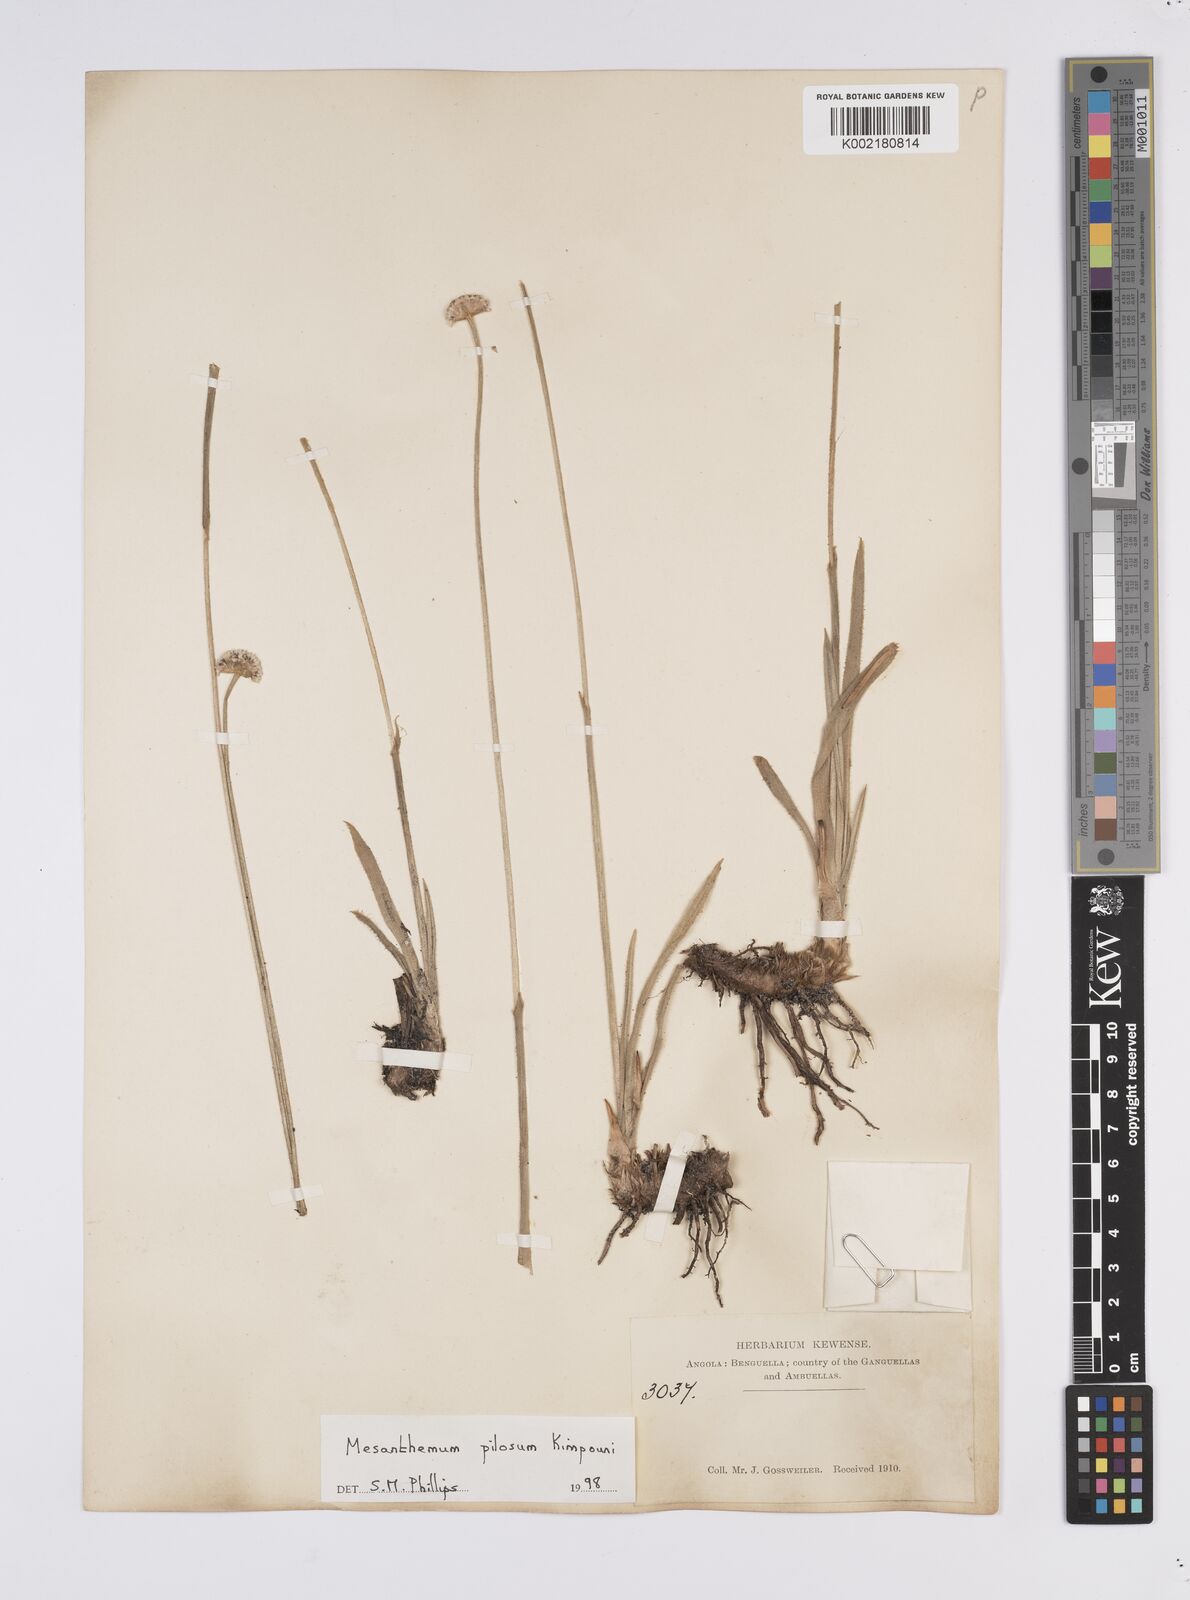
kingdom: Plantae
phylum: Tracheophyta
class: Liliopsida
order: Poales
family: Eriocaulaceae
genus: Mesanthemum
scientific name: Mesanthemum pilosum
